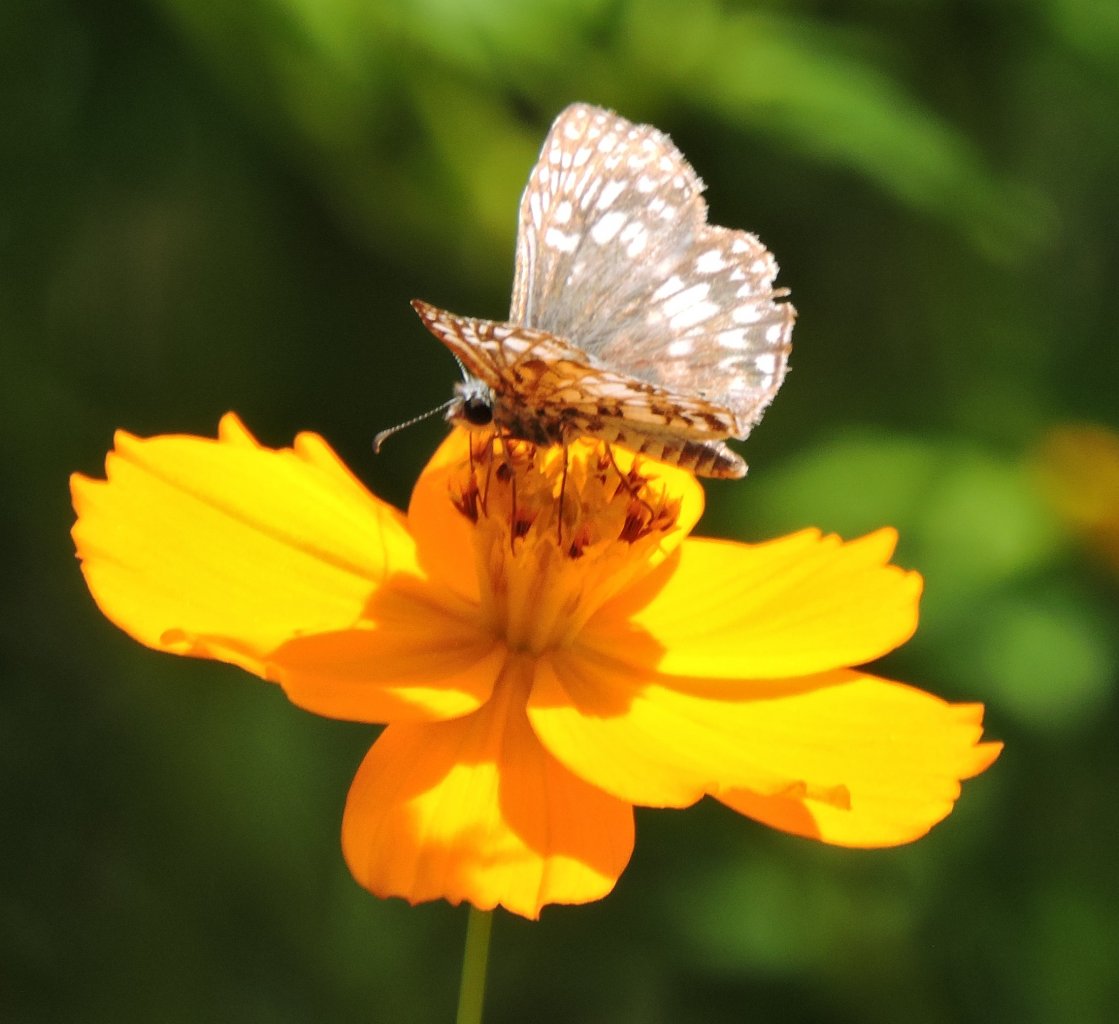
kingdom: Animalia
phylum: Arthropoda
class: Insecta
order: Lepidoptera
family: Hesperiidae
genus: Pyrgus
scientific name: Pyrgus oileus
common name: Tropical Checkered-Skipper
